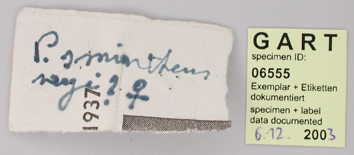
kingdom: Animalia
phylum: Arthropoda
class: Insecta
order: Lepidoptera
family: Papilionidae
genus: Parnassius
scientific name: Parnassius smintheus
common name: Mountain parnassian
